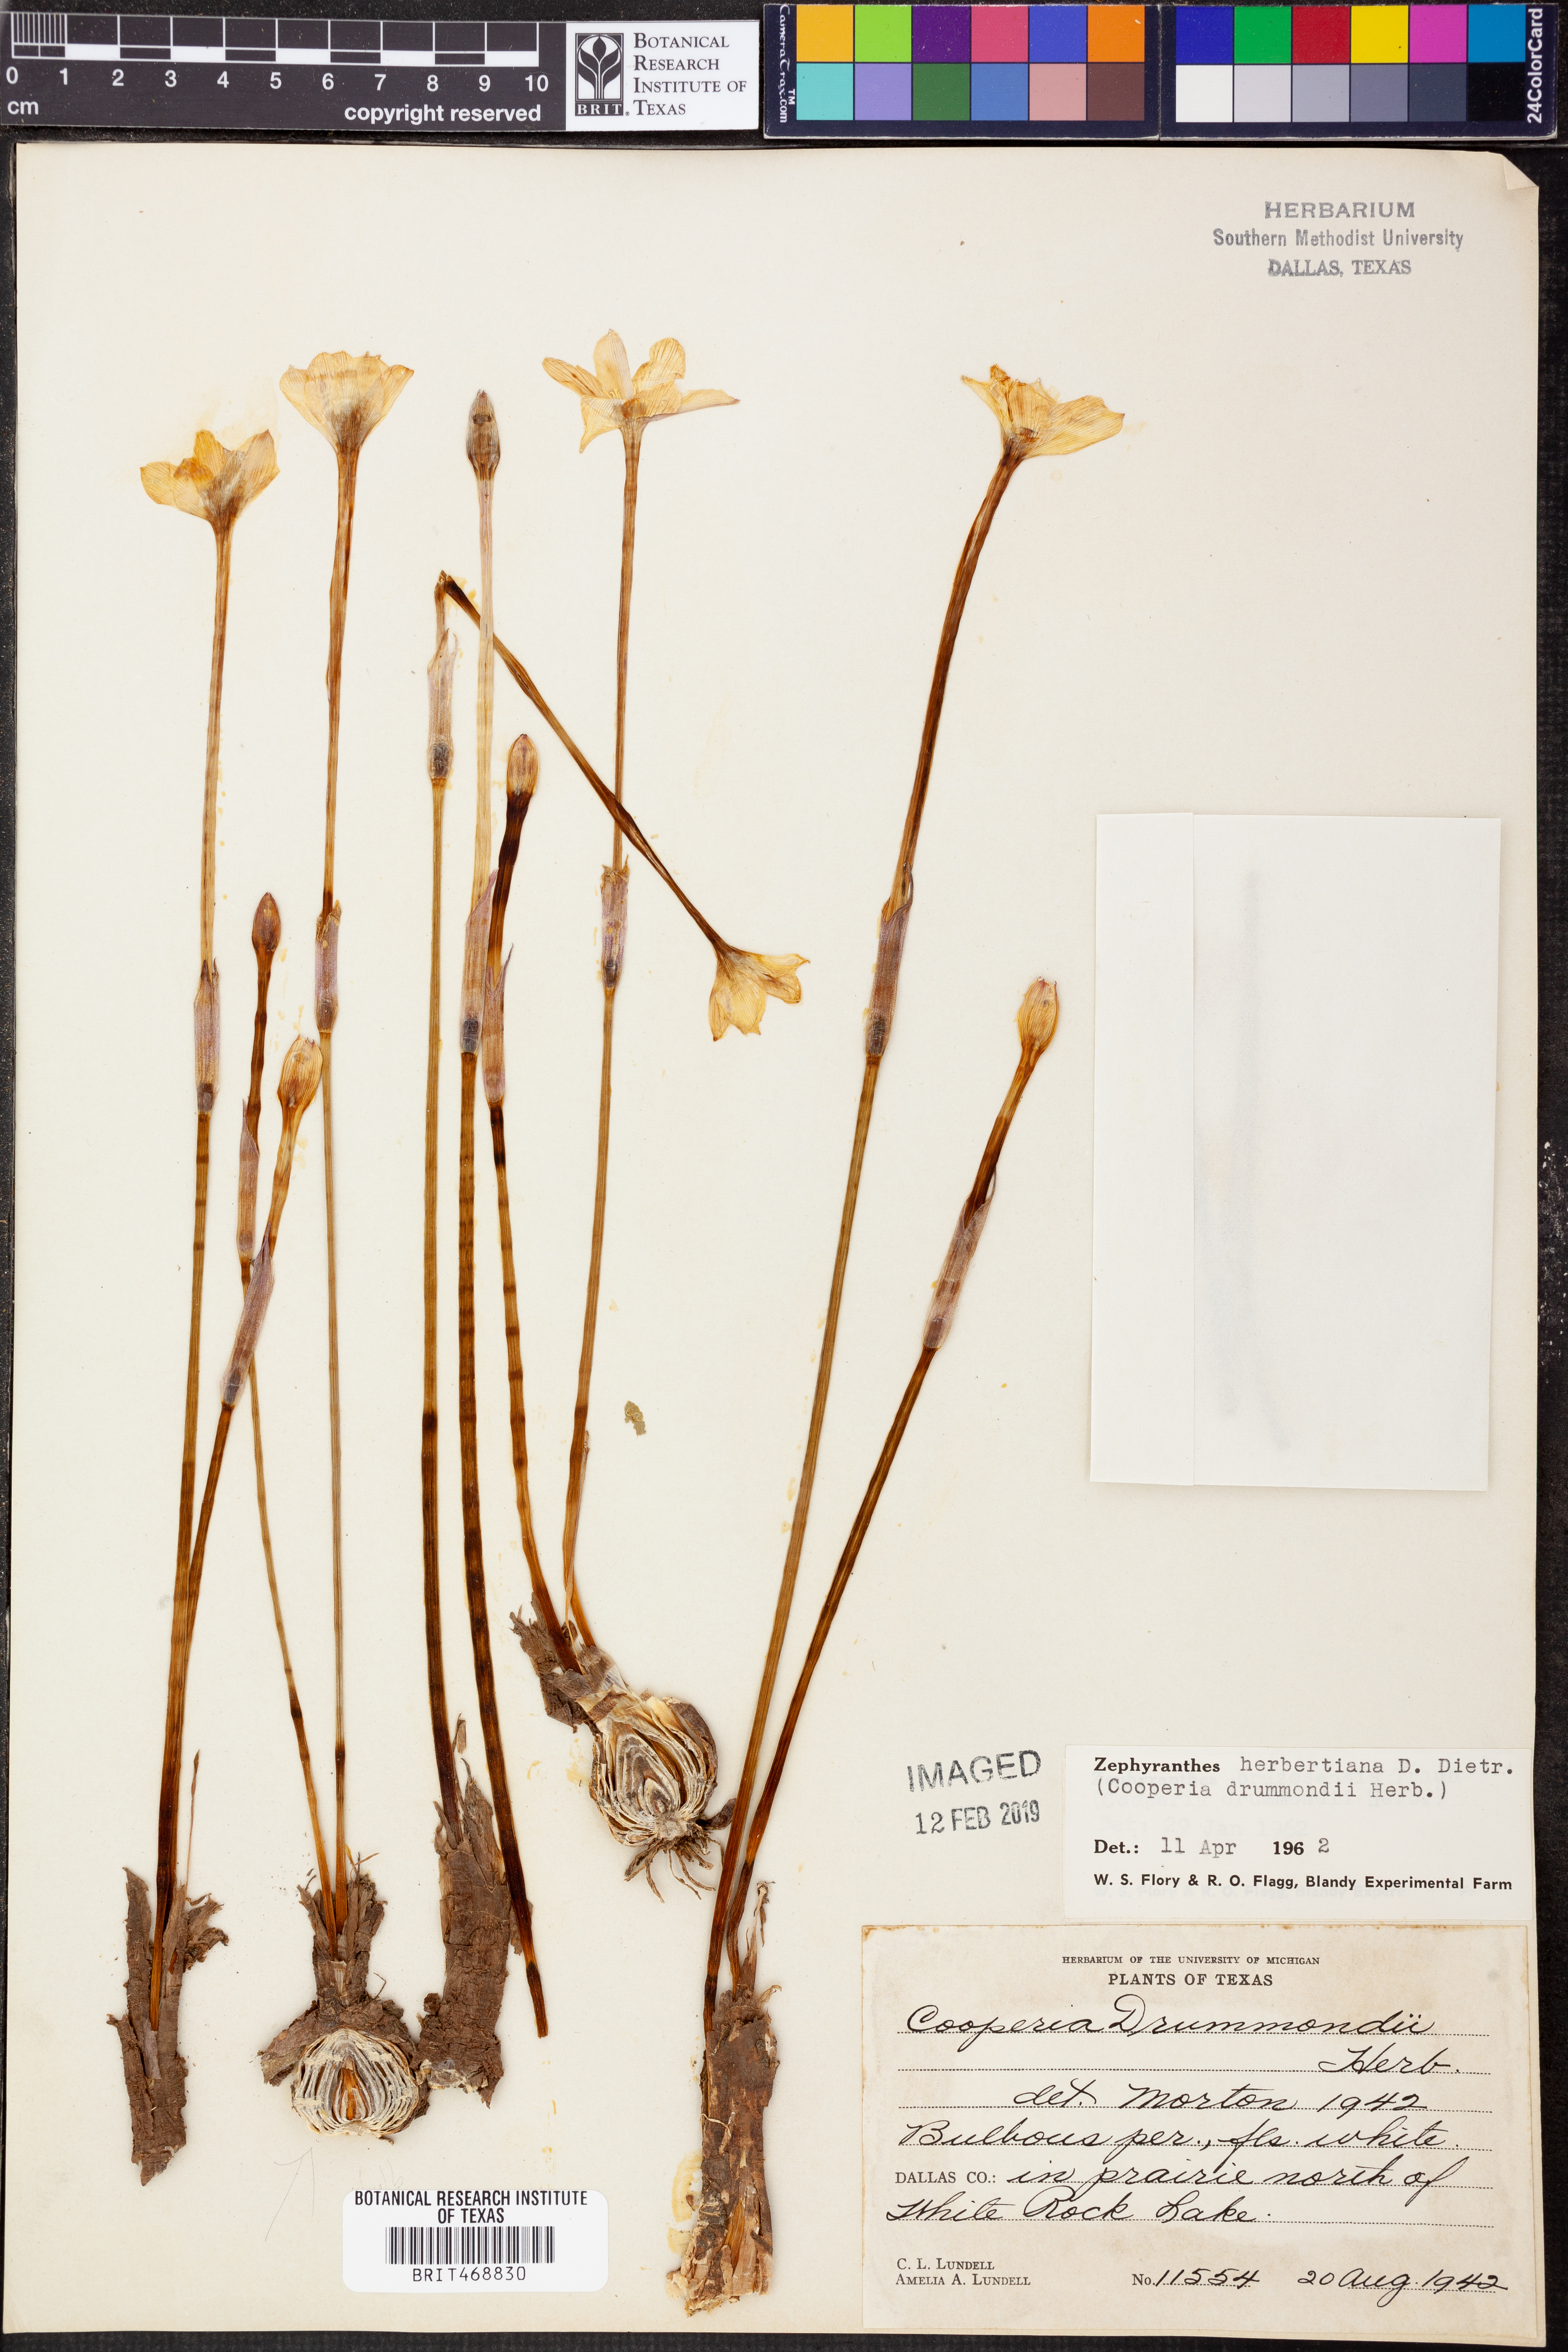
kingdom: Plantae
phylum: Tracheophyta
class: Liliopsida
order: Asparagales
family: Amaryllidaceae
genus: Zephyranthes
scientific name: Zephyranthes chlorosolen
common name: Evening rain-lily
